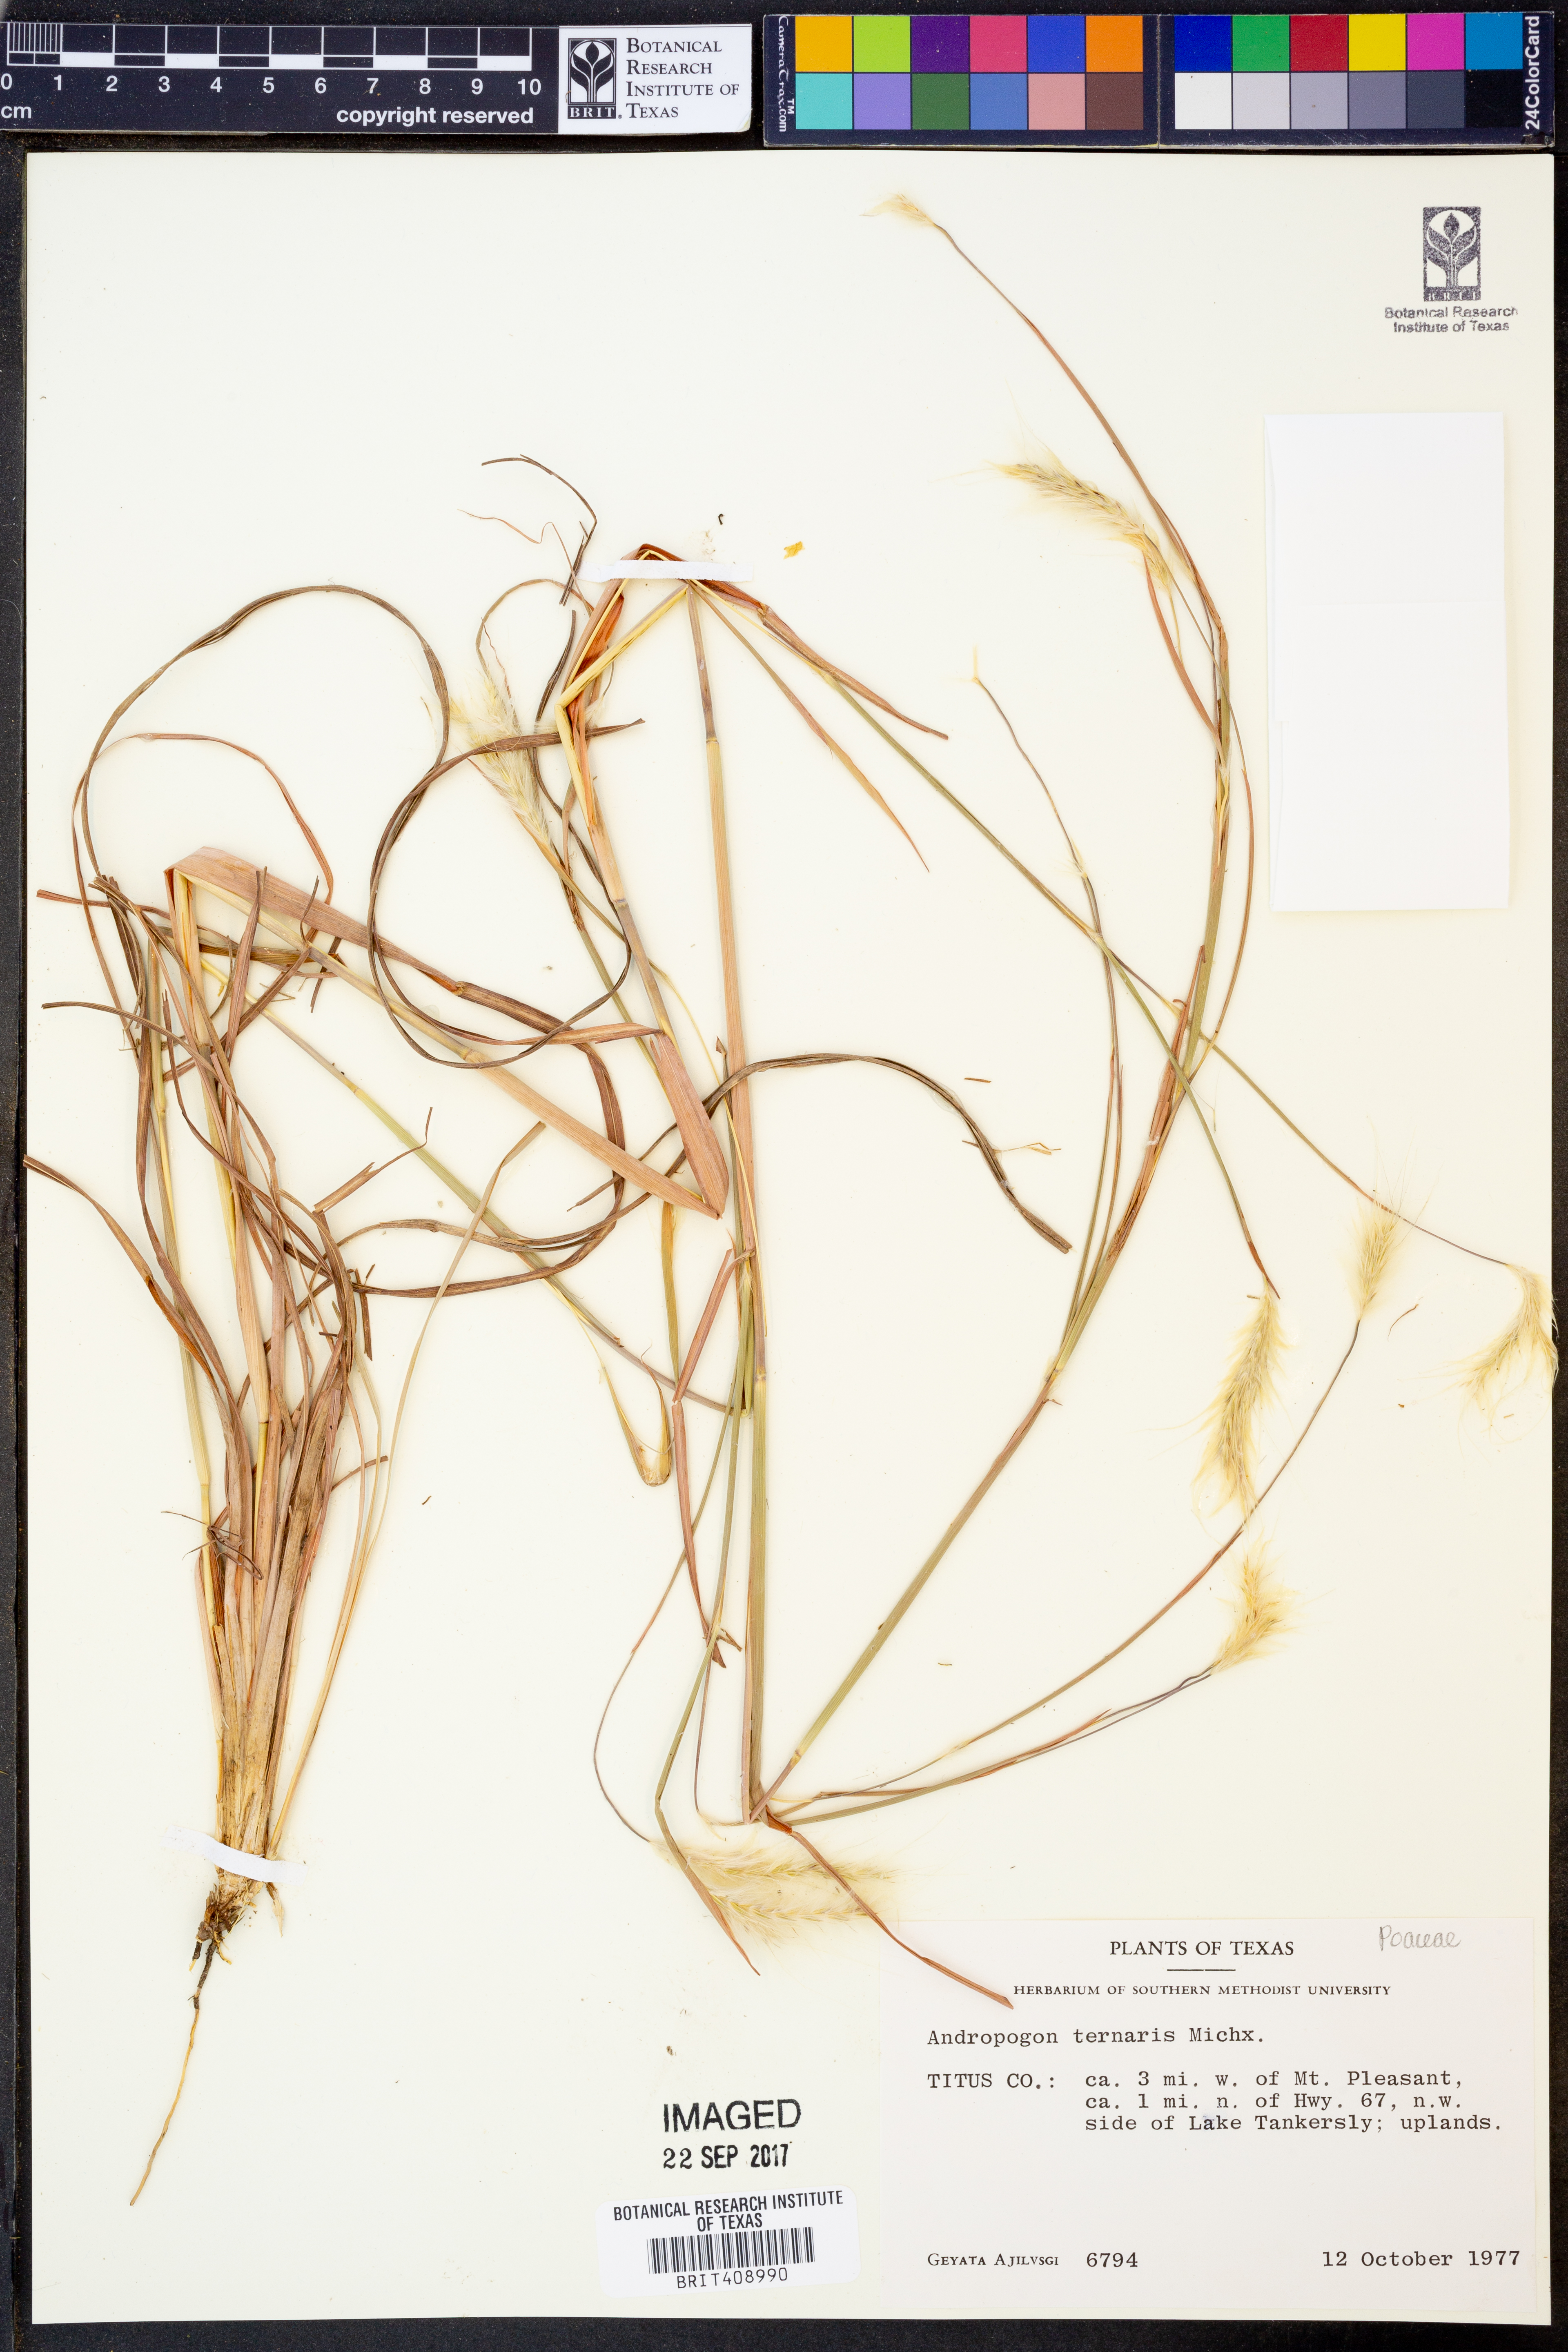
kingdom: Plantae
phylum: Tracheophyta
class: Liliopsida
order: Poales
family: Poaceae
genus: Andropogon
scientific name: Andropogon ternarius
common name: Split bluestem
